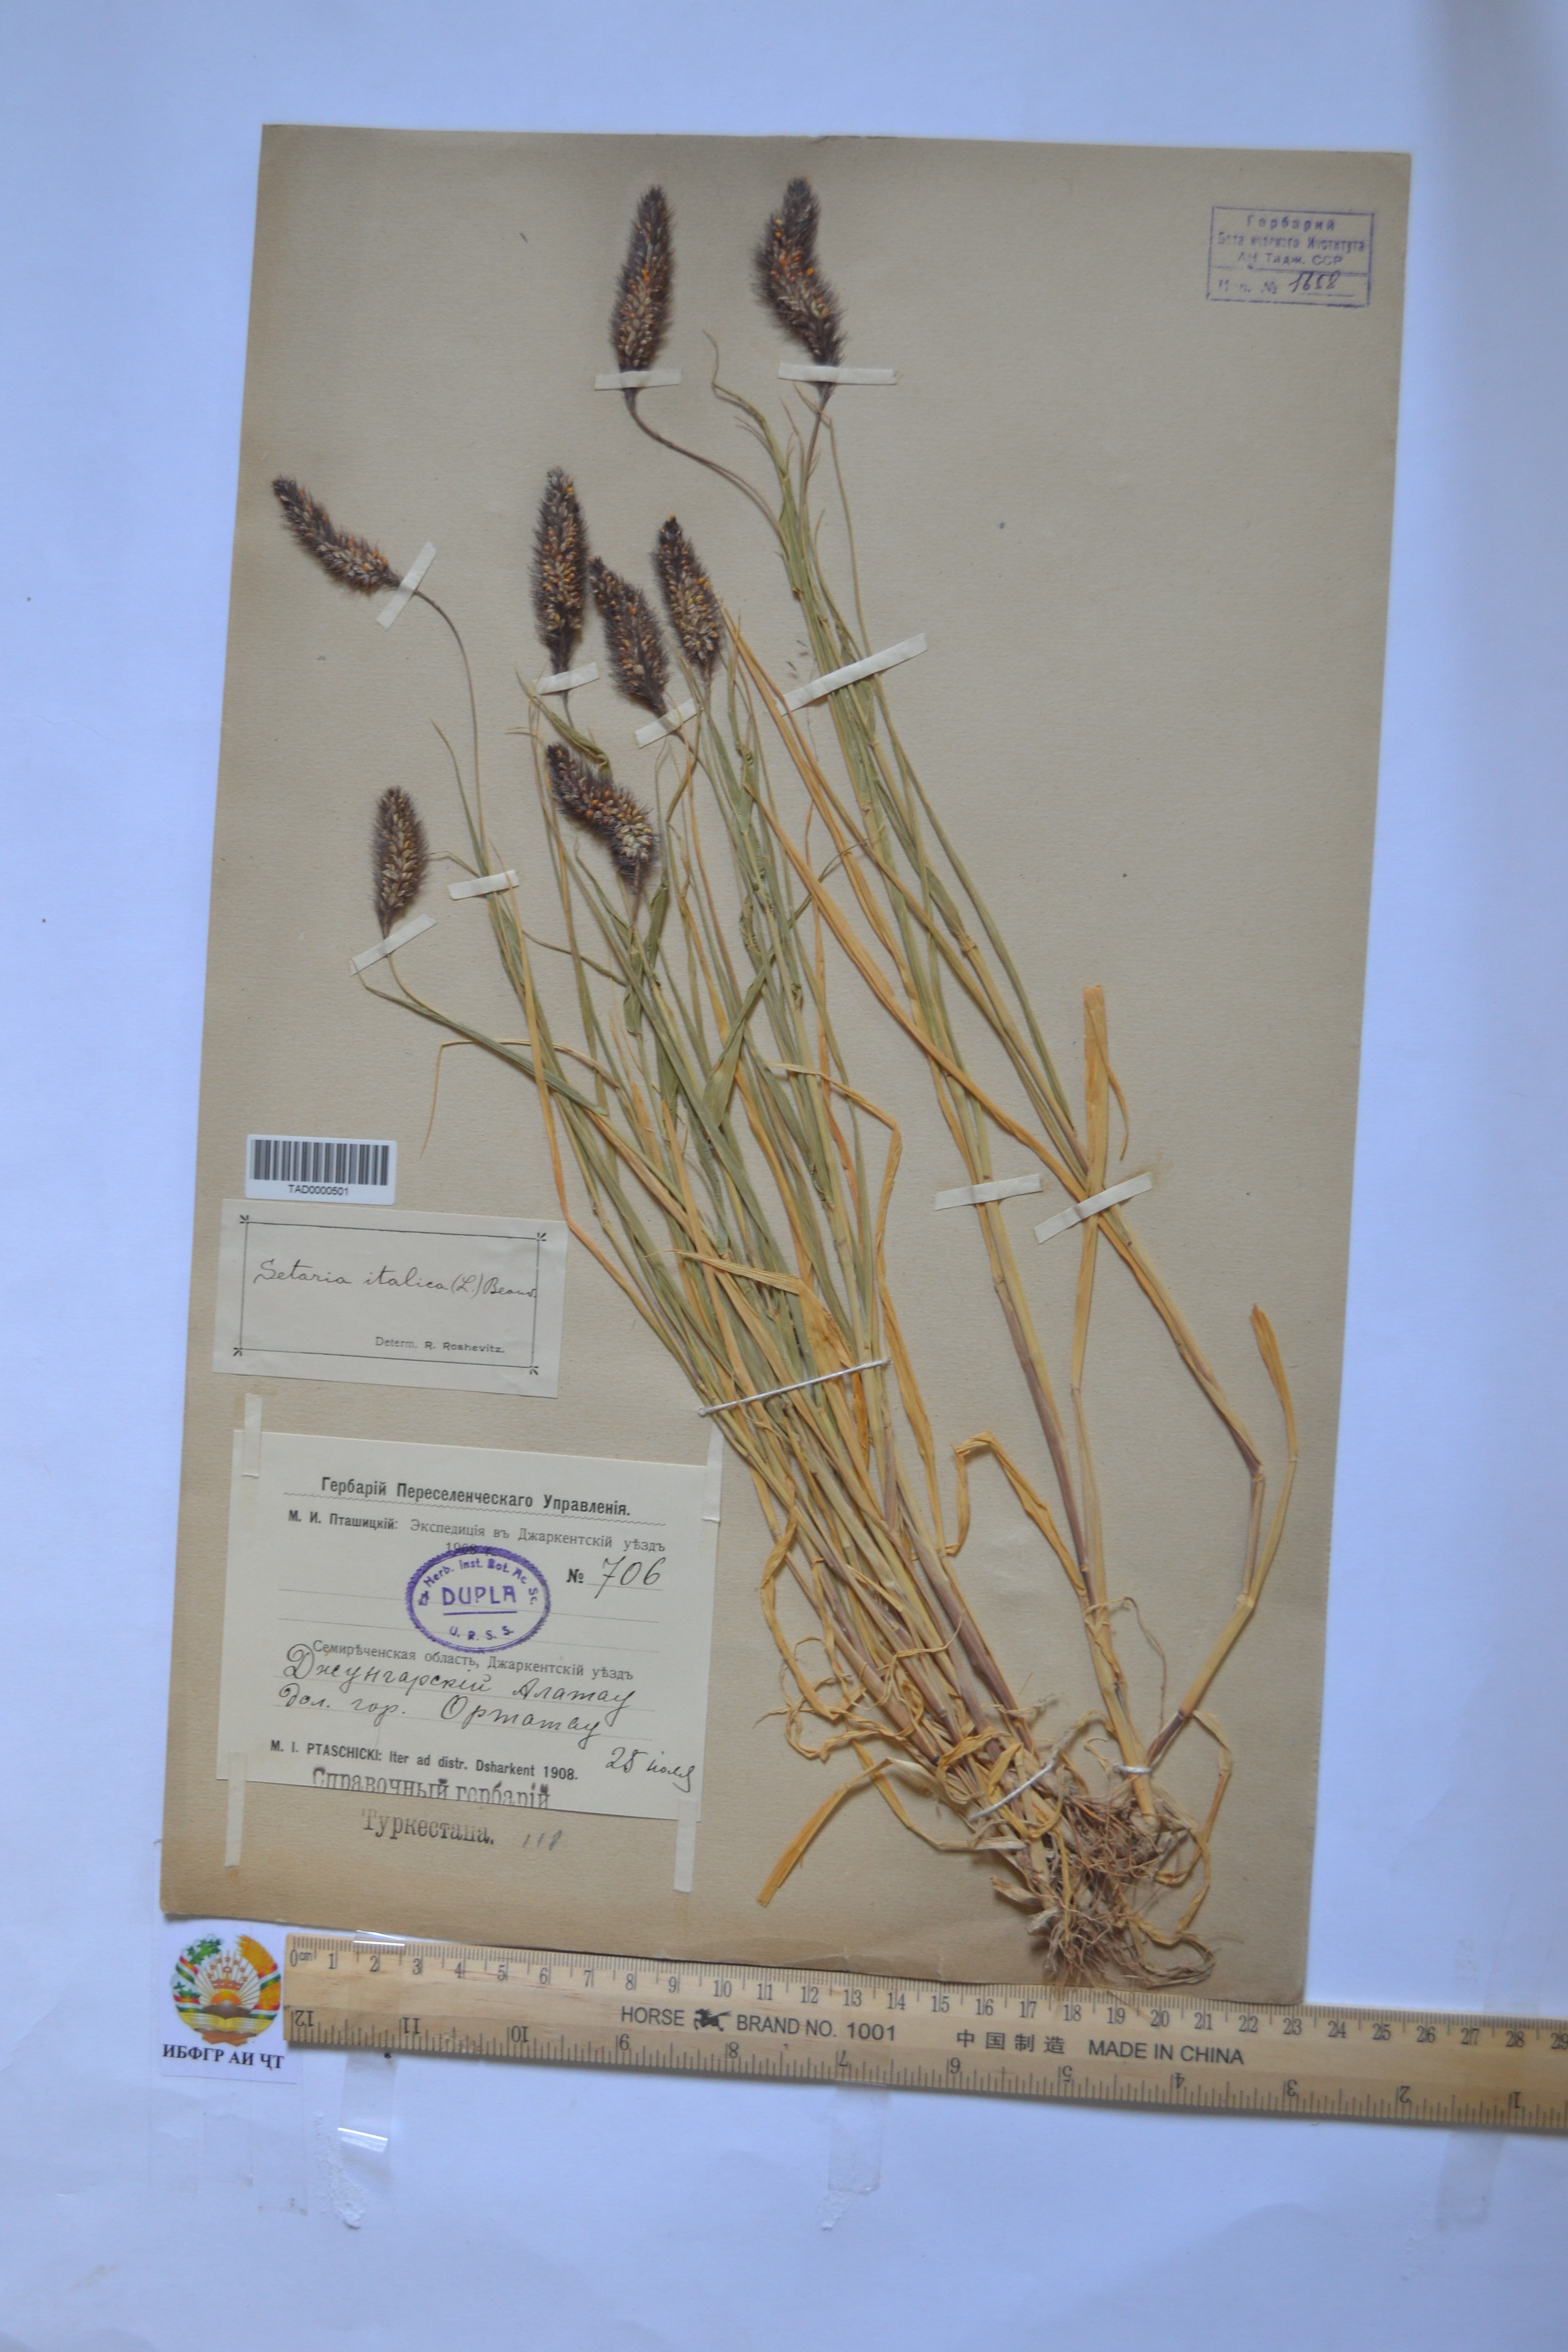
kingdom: Plantae
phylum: Tracheophyta
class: Liliopsida
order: Poales
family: Poaceae
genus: Setaria
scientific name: Setaria italica
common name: Foxtail bristle-grass
